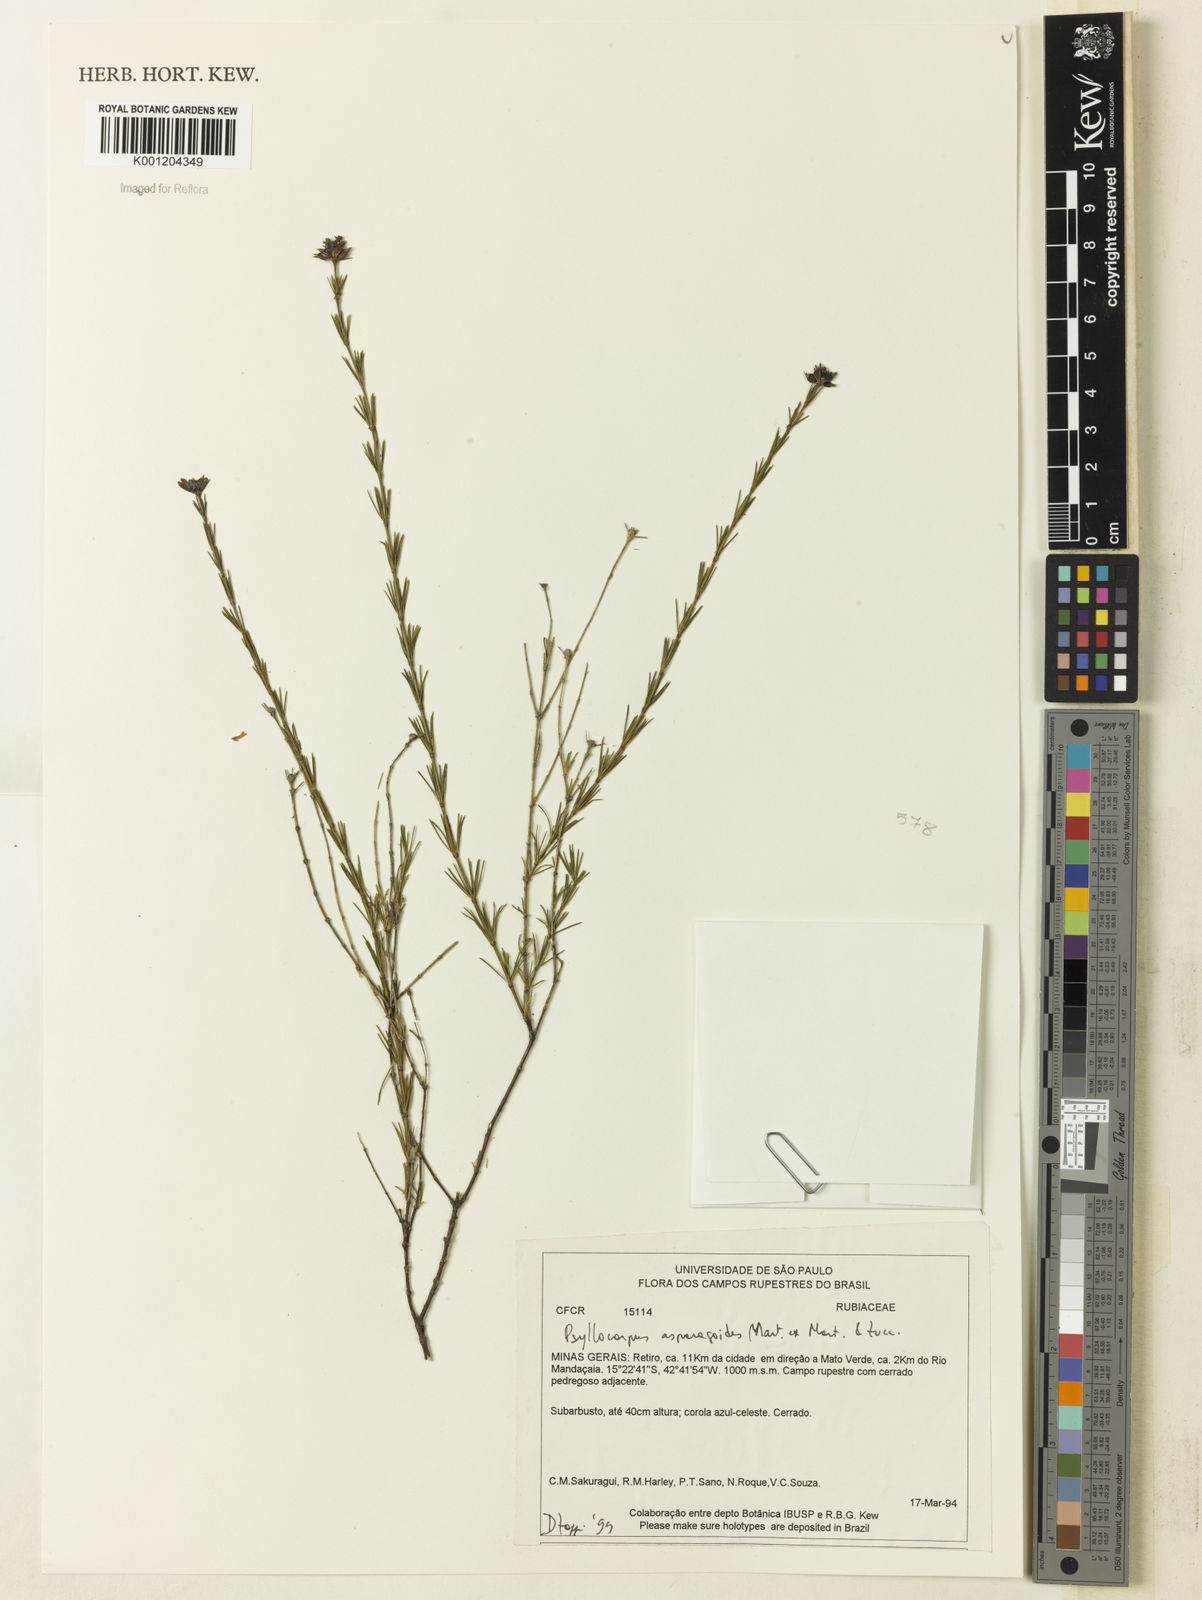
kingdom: Plantae
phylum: Tracheophyta
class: Magnoliopsida
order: Gentianales
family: Rubiaceae
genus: Psyllocarpus
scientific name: Psyllocarpus asparagoides
